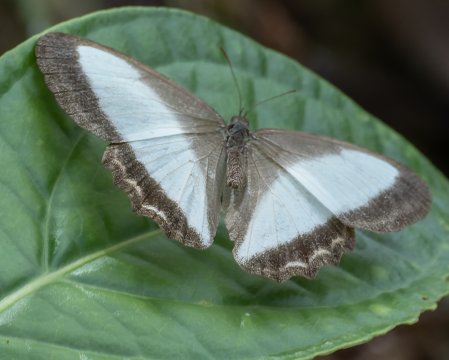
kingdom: Animalia
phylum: Arthropoda
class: Insecta
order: Lepidoptera
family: Nymphalidae
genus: Oressinoma
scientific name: Oressinoma typhla
